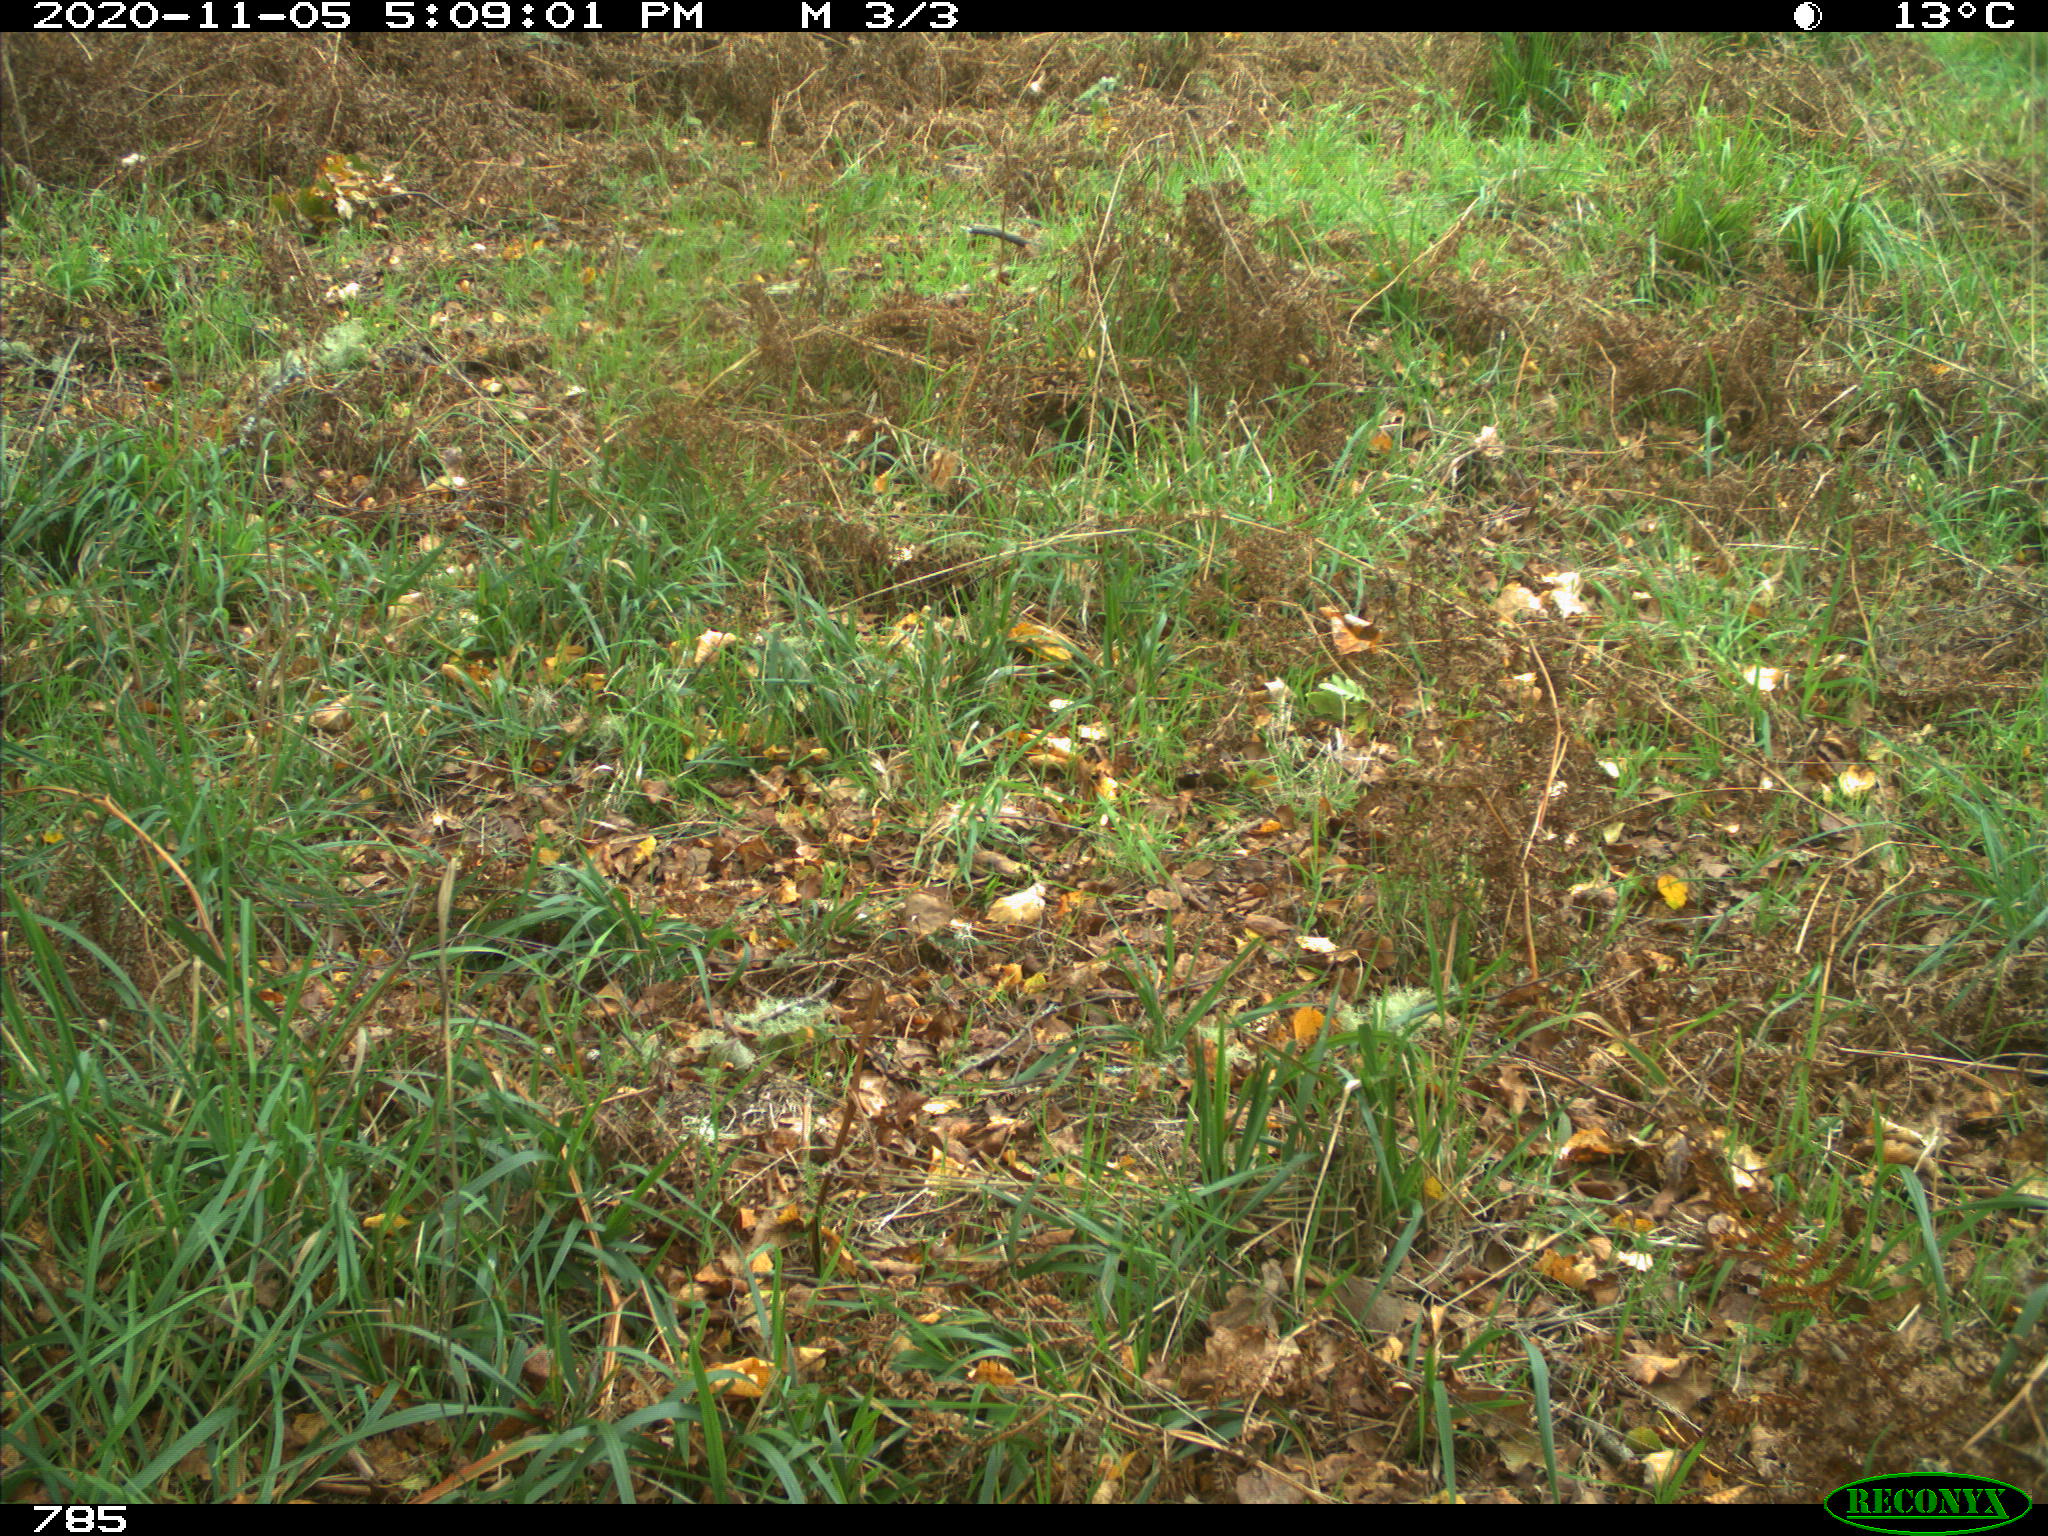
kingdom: Animalia
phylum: Chordata
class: Mammalia
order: Artiodactyla
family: Bovidae
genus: Bos
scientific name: Bos taurus
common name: Domesticated cattle
